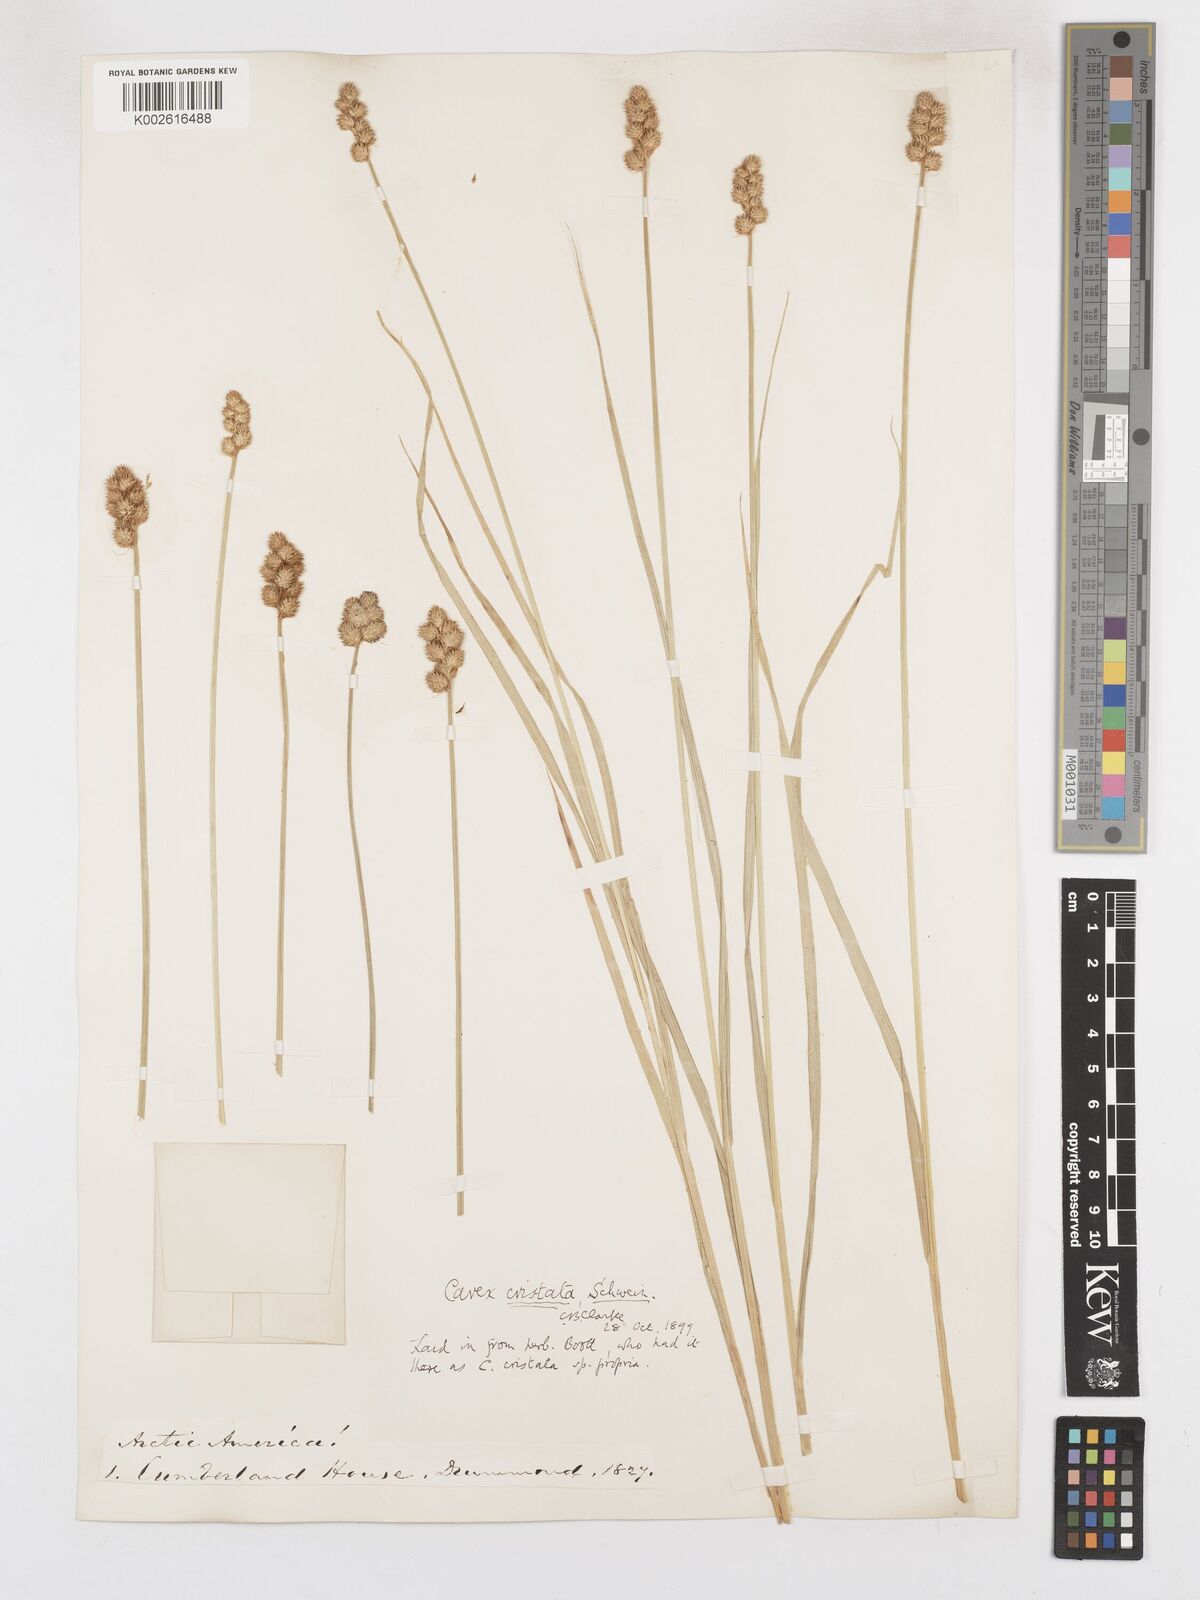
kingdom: Plantae
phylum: Tracheophyta
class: Liliopsida
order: Poales
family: Cyperaceae
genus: Carex
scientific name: Carex cristatella
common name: Crested oval sedge
